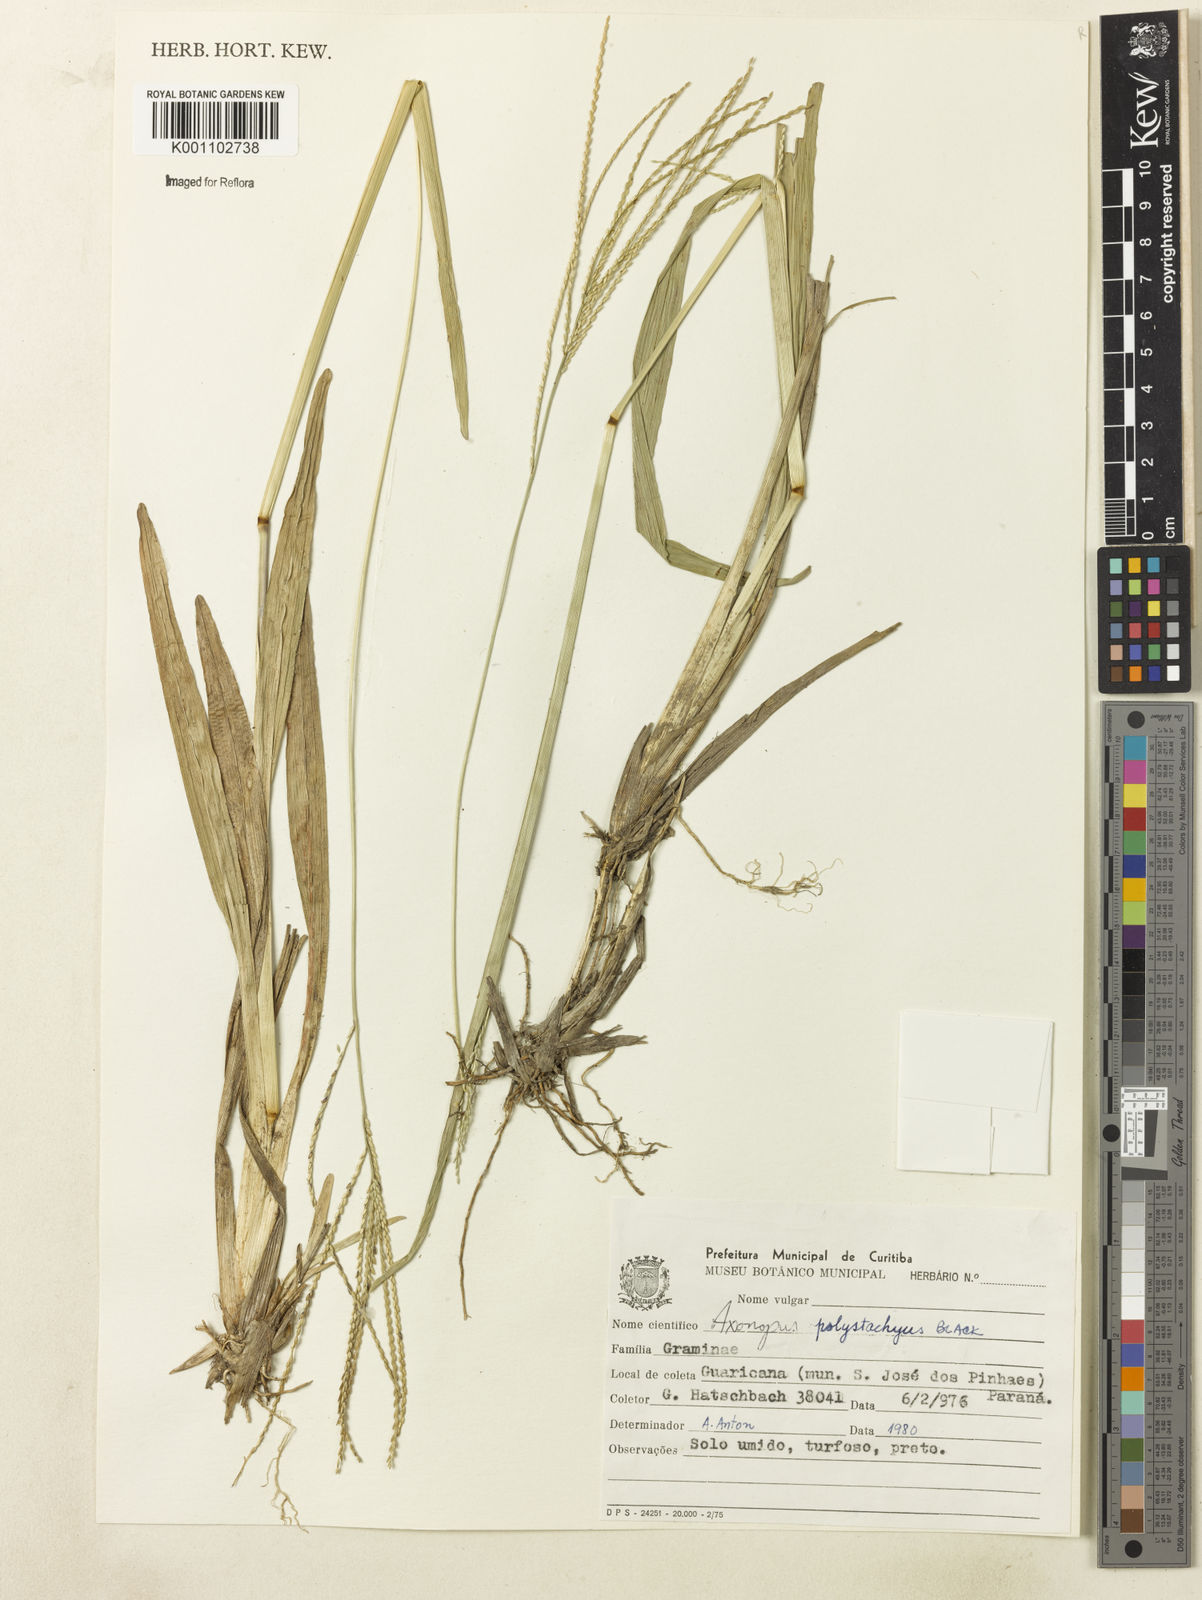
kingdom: Plantae
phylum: Tracheophyta
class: Liliopsida
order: Poales
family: Poaceae
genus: Axonopus
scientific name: Axonopus polystachyus
